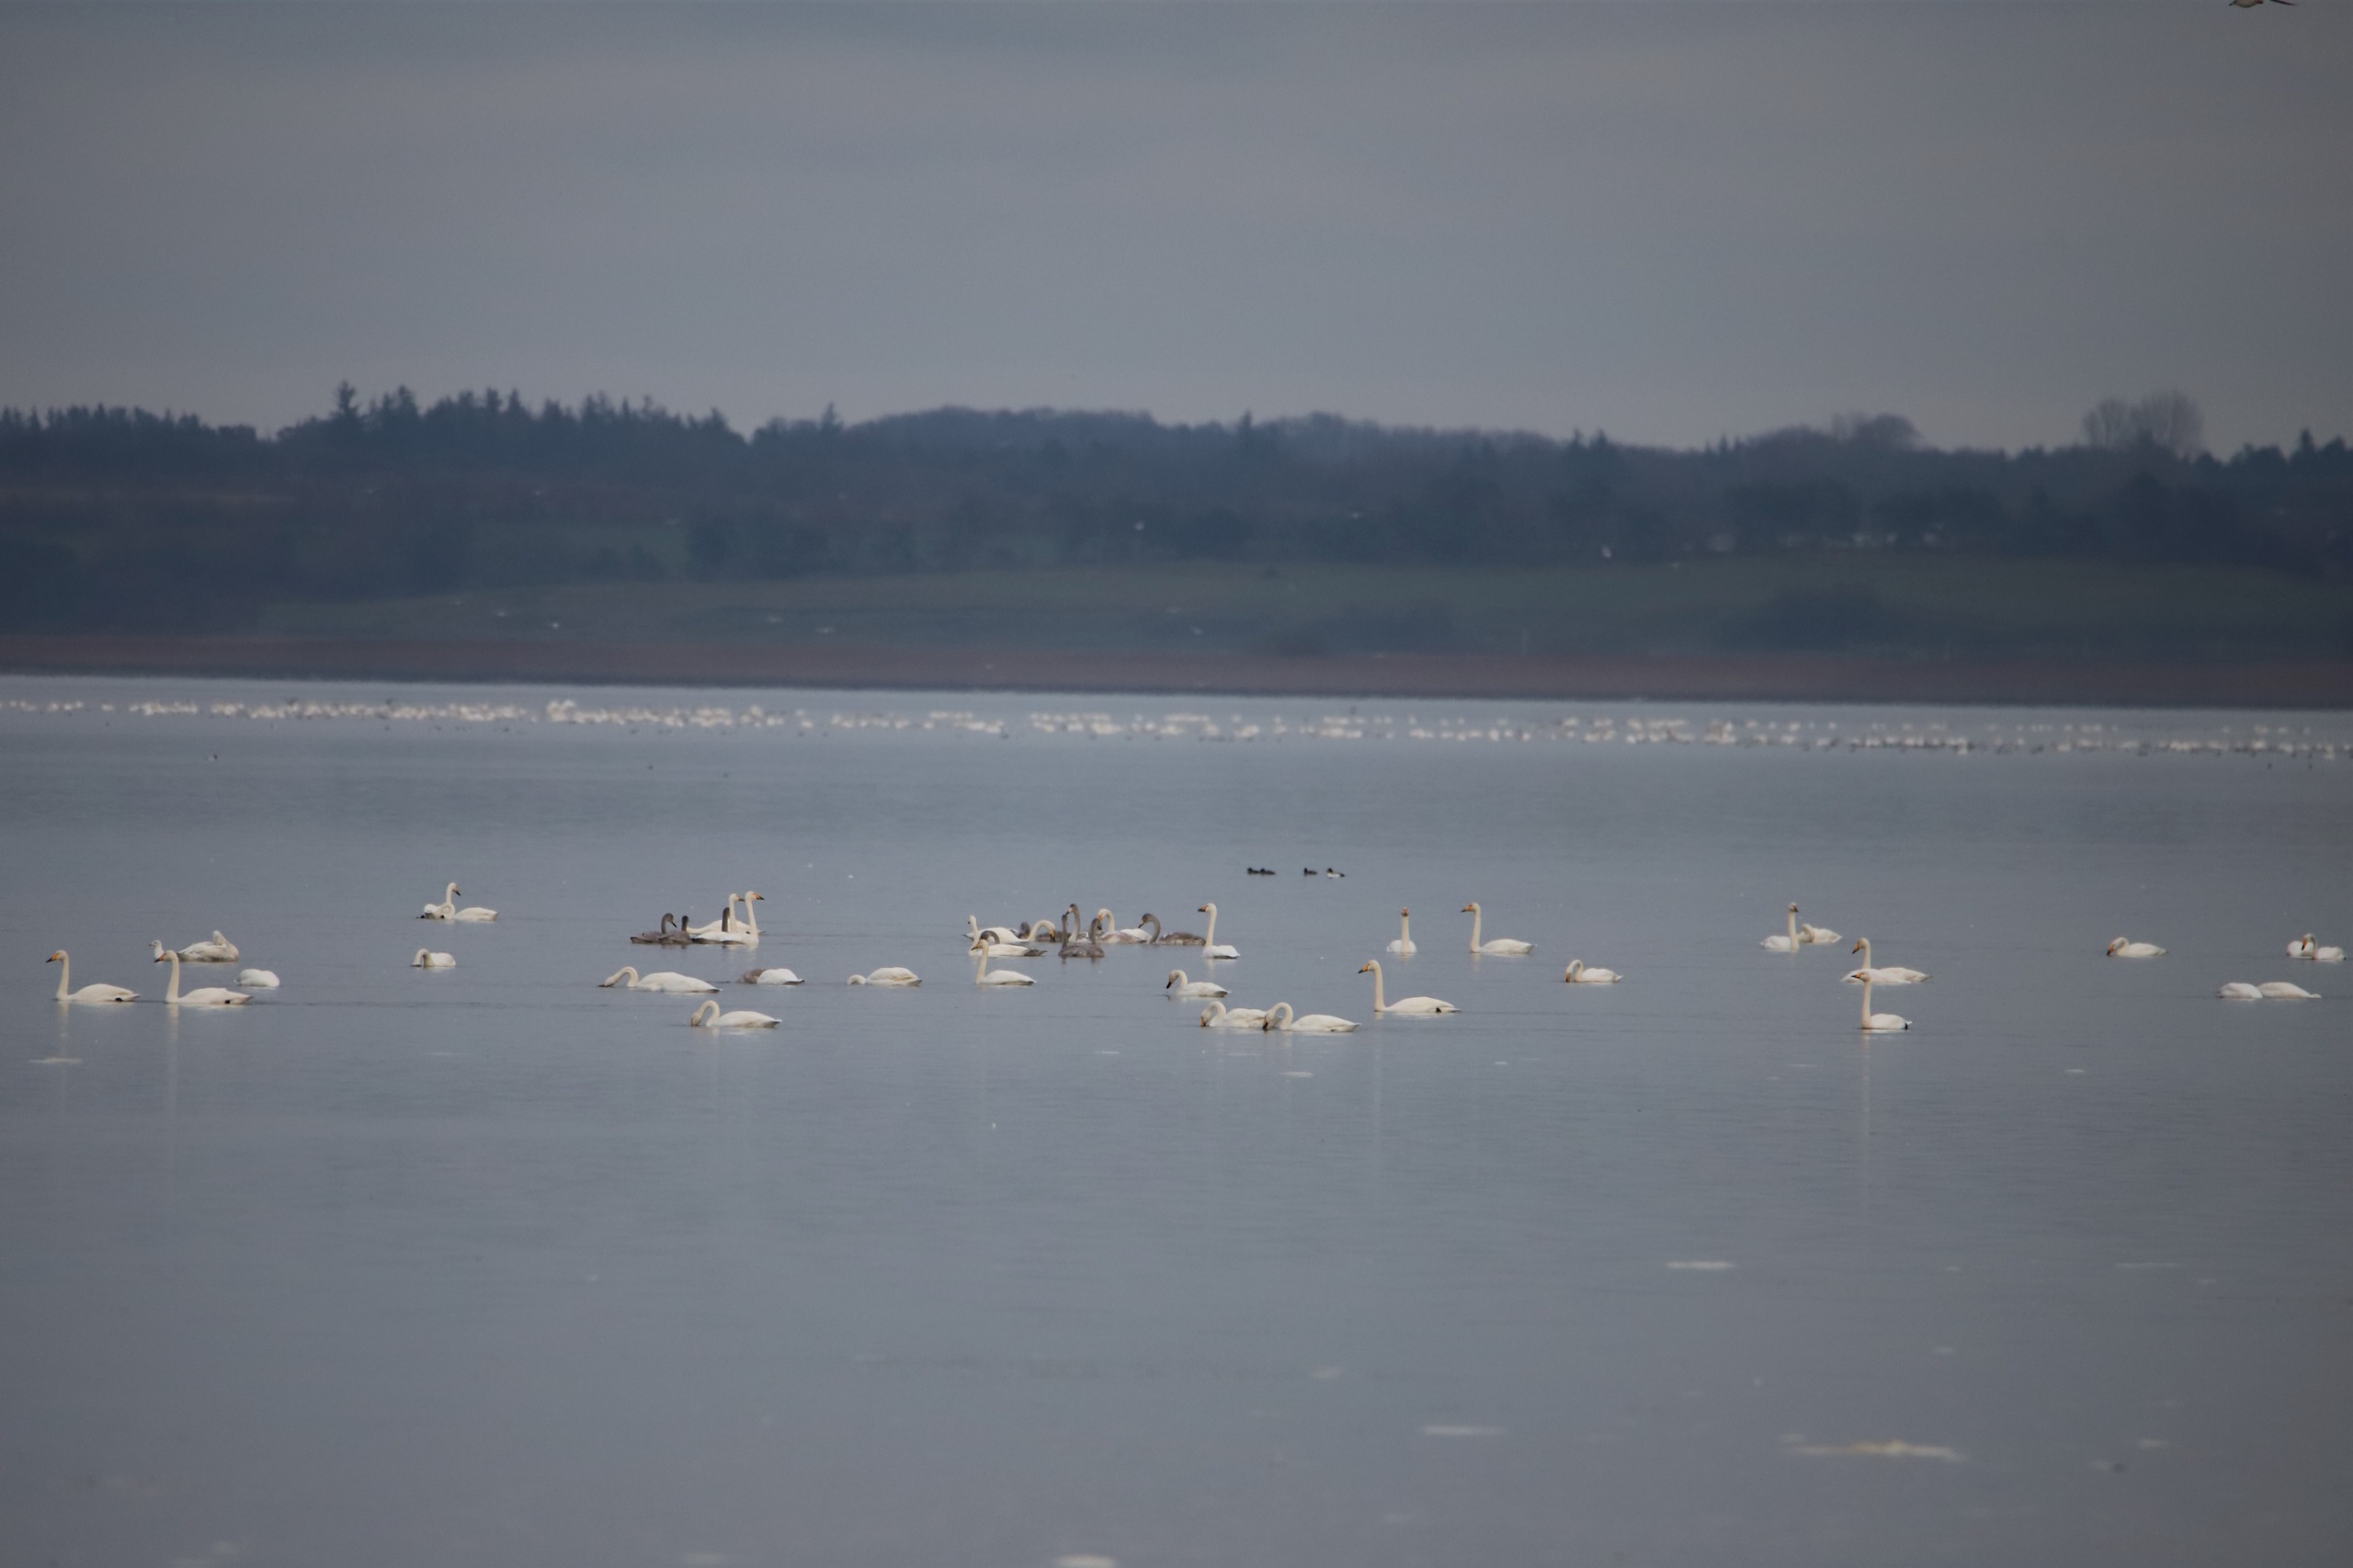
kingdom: Animalia
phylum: Chordata
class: Aves
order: Anseriformes
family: Anatidae
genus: Cygnus
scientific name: Cygnus cygnus
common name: Sangsvane
